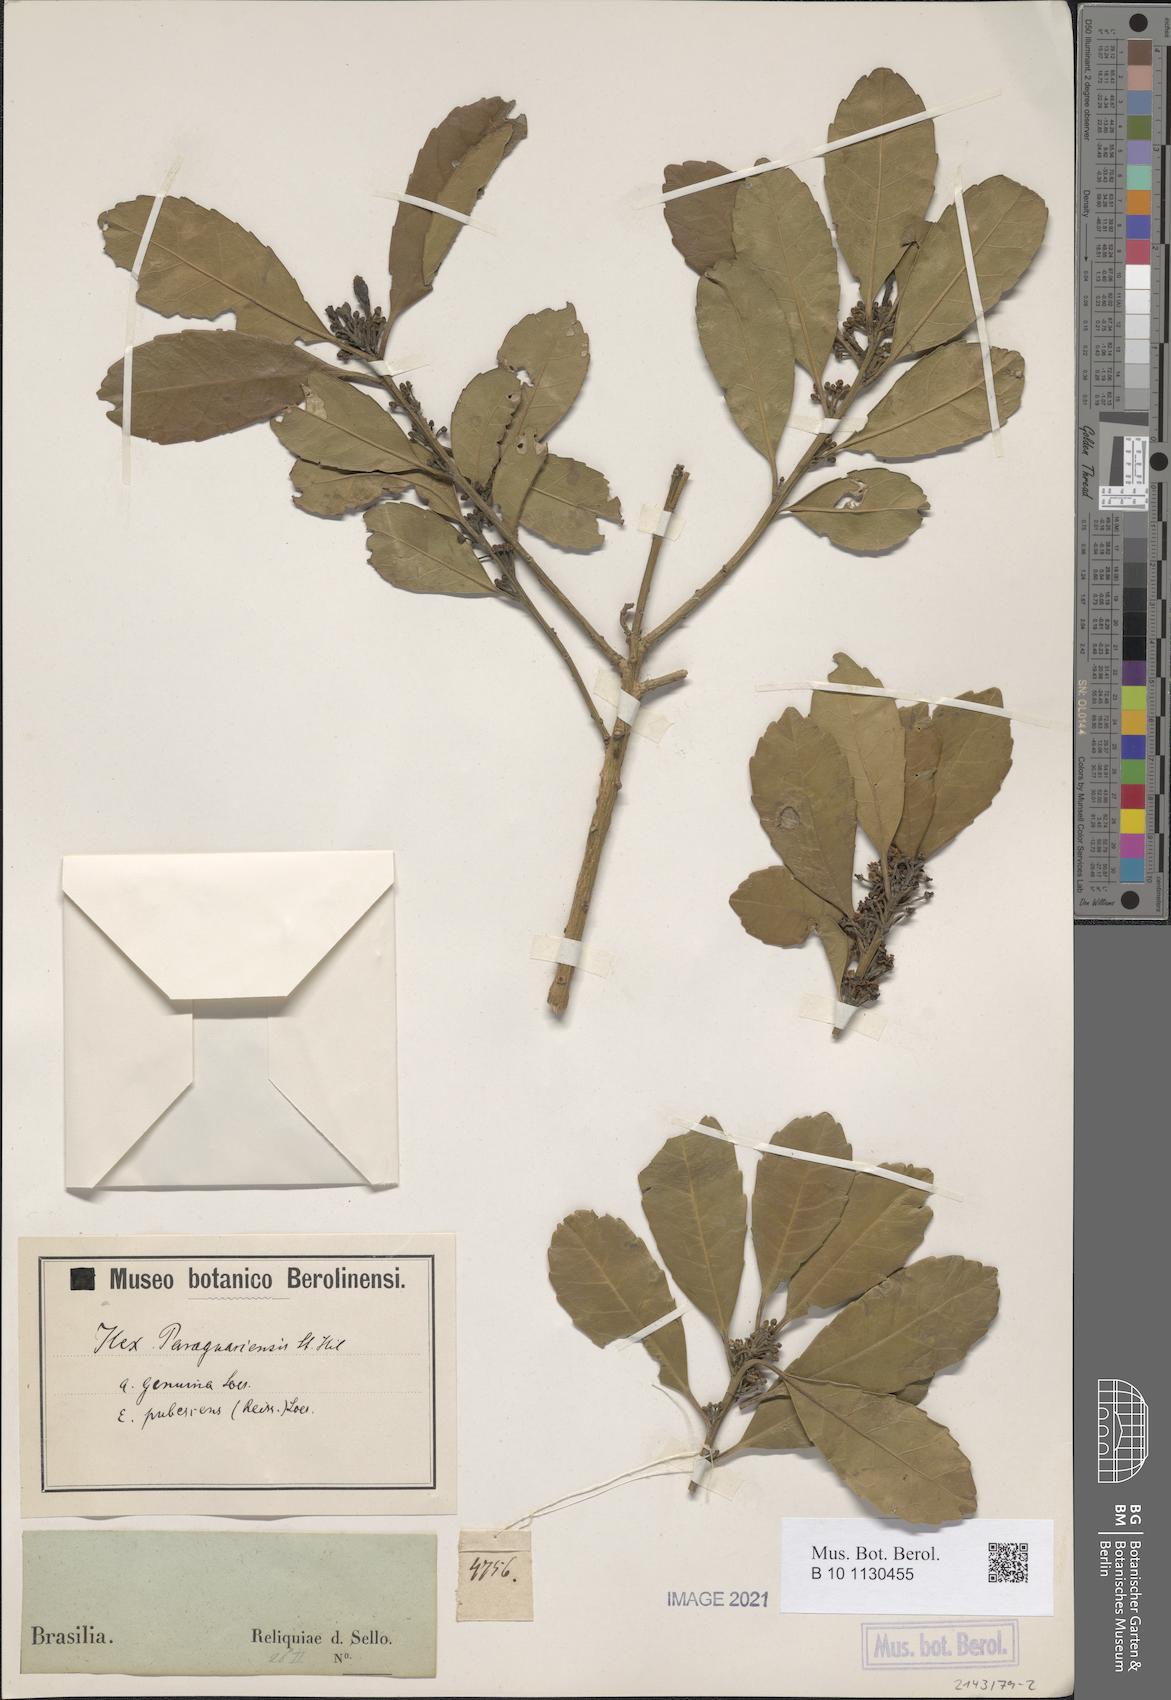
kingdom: Plantae
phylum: Tracheophyta
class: Magnoliopsida
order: Aquifoliales
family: Aquifoliaceae
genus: Ilex
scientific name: Ilex paraguariensis
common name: Paraguay tea
